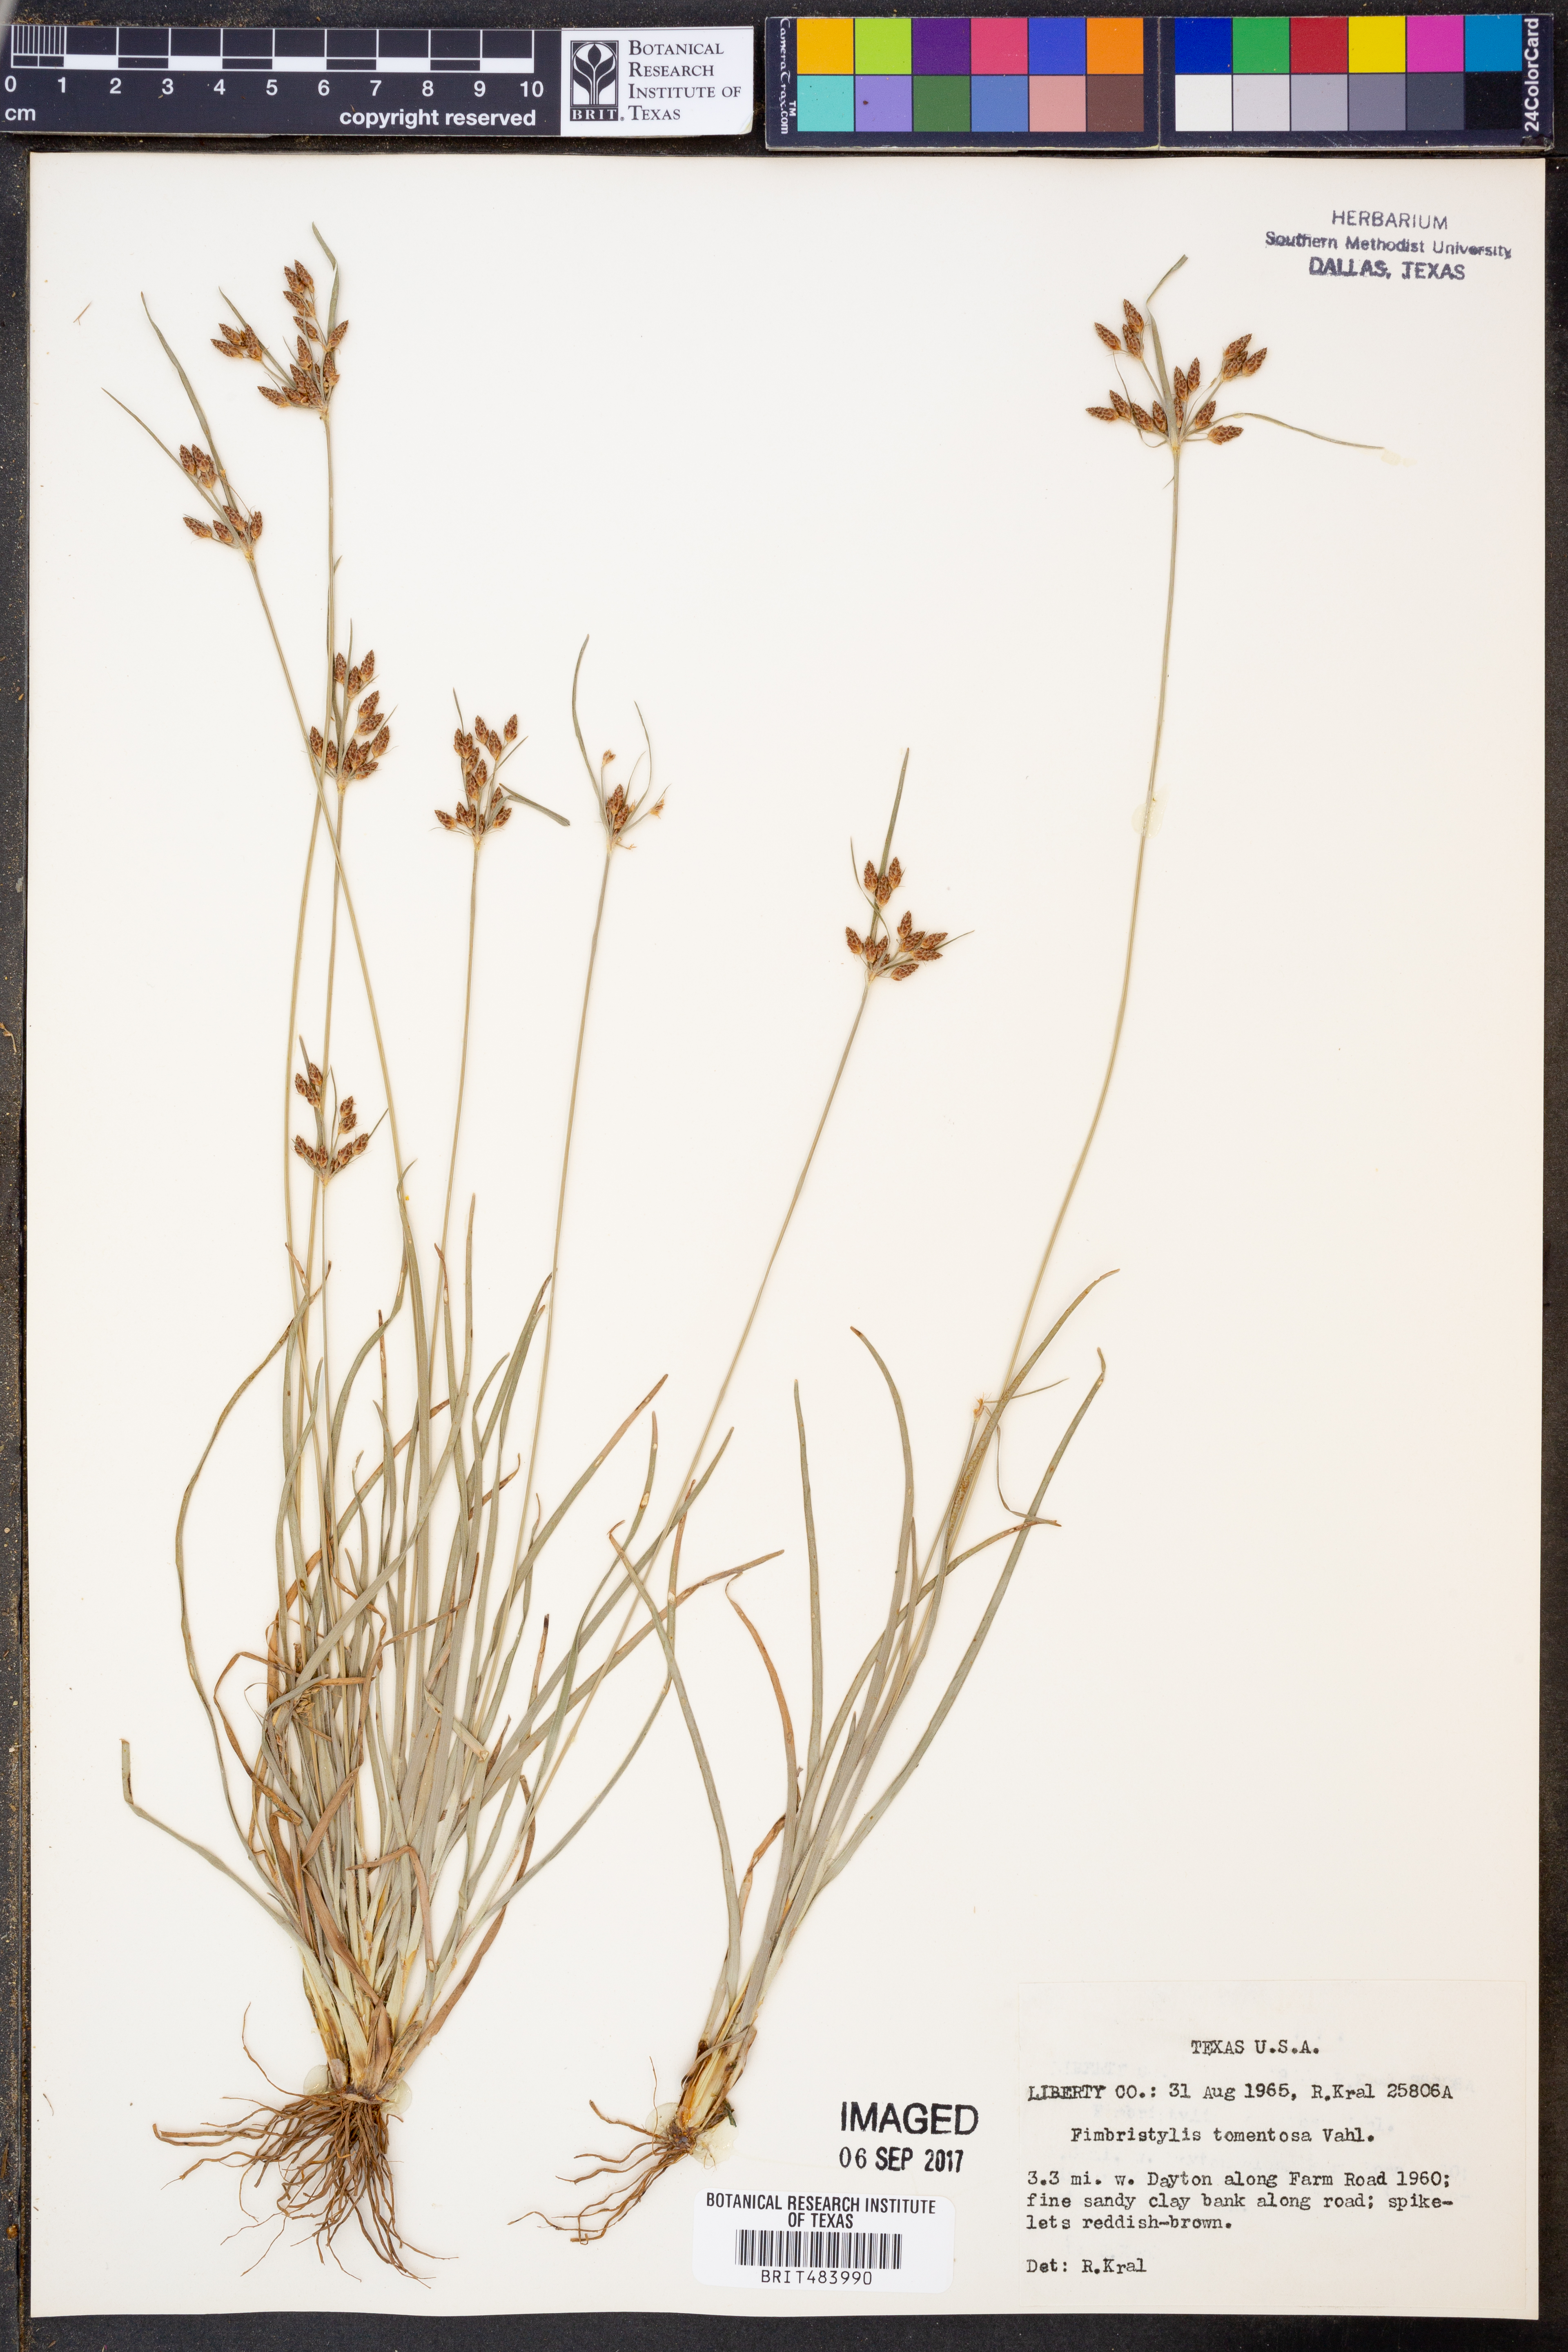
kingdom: Plantae
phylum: Tracheophyta
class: Liliopsida
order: Poales
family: Cyperaceae
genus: Fimbristylis
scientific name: Fimbristylis dichotoma
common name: Forked fimbry
